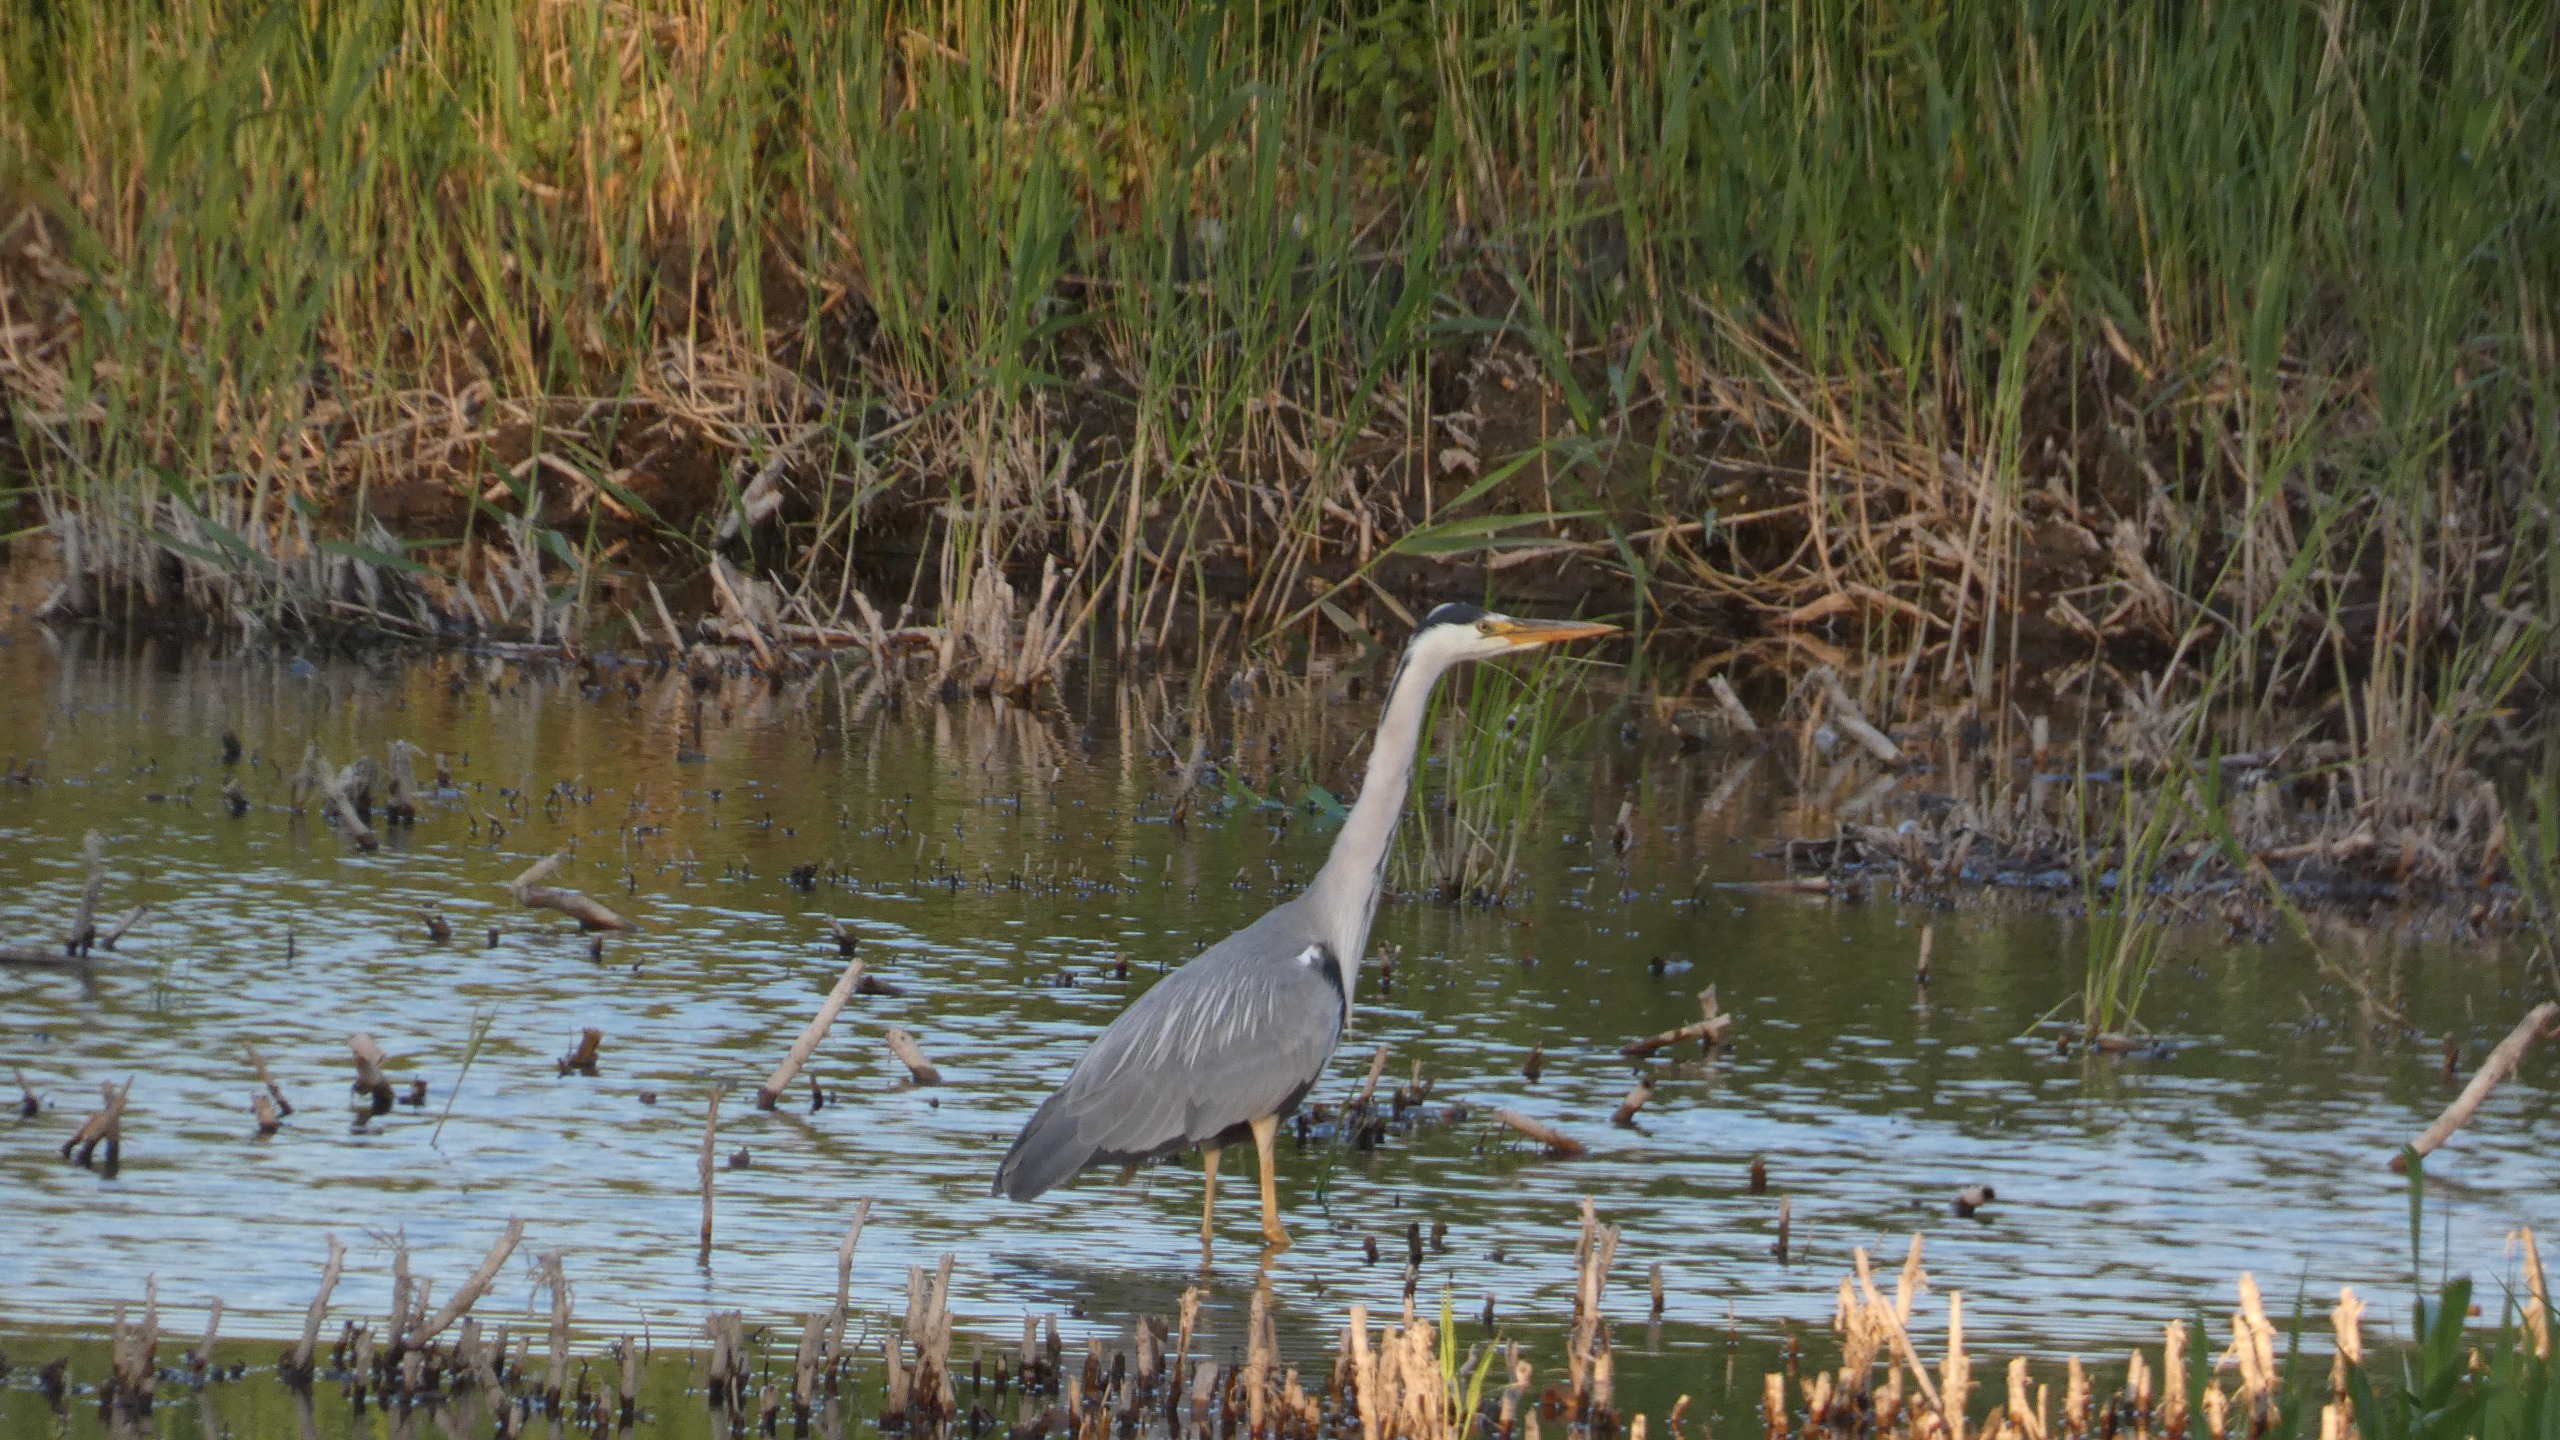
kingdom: Animalia
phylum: Chordata
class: Aves
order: Pelecaniformes
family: Ardeidae
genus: Ardea
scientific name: Ardea cinerea
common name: Fiskehejre
